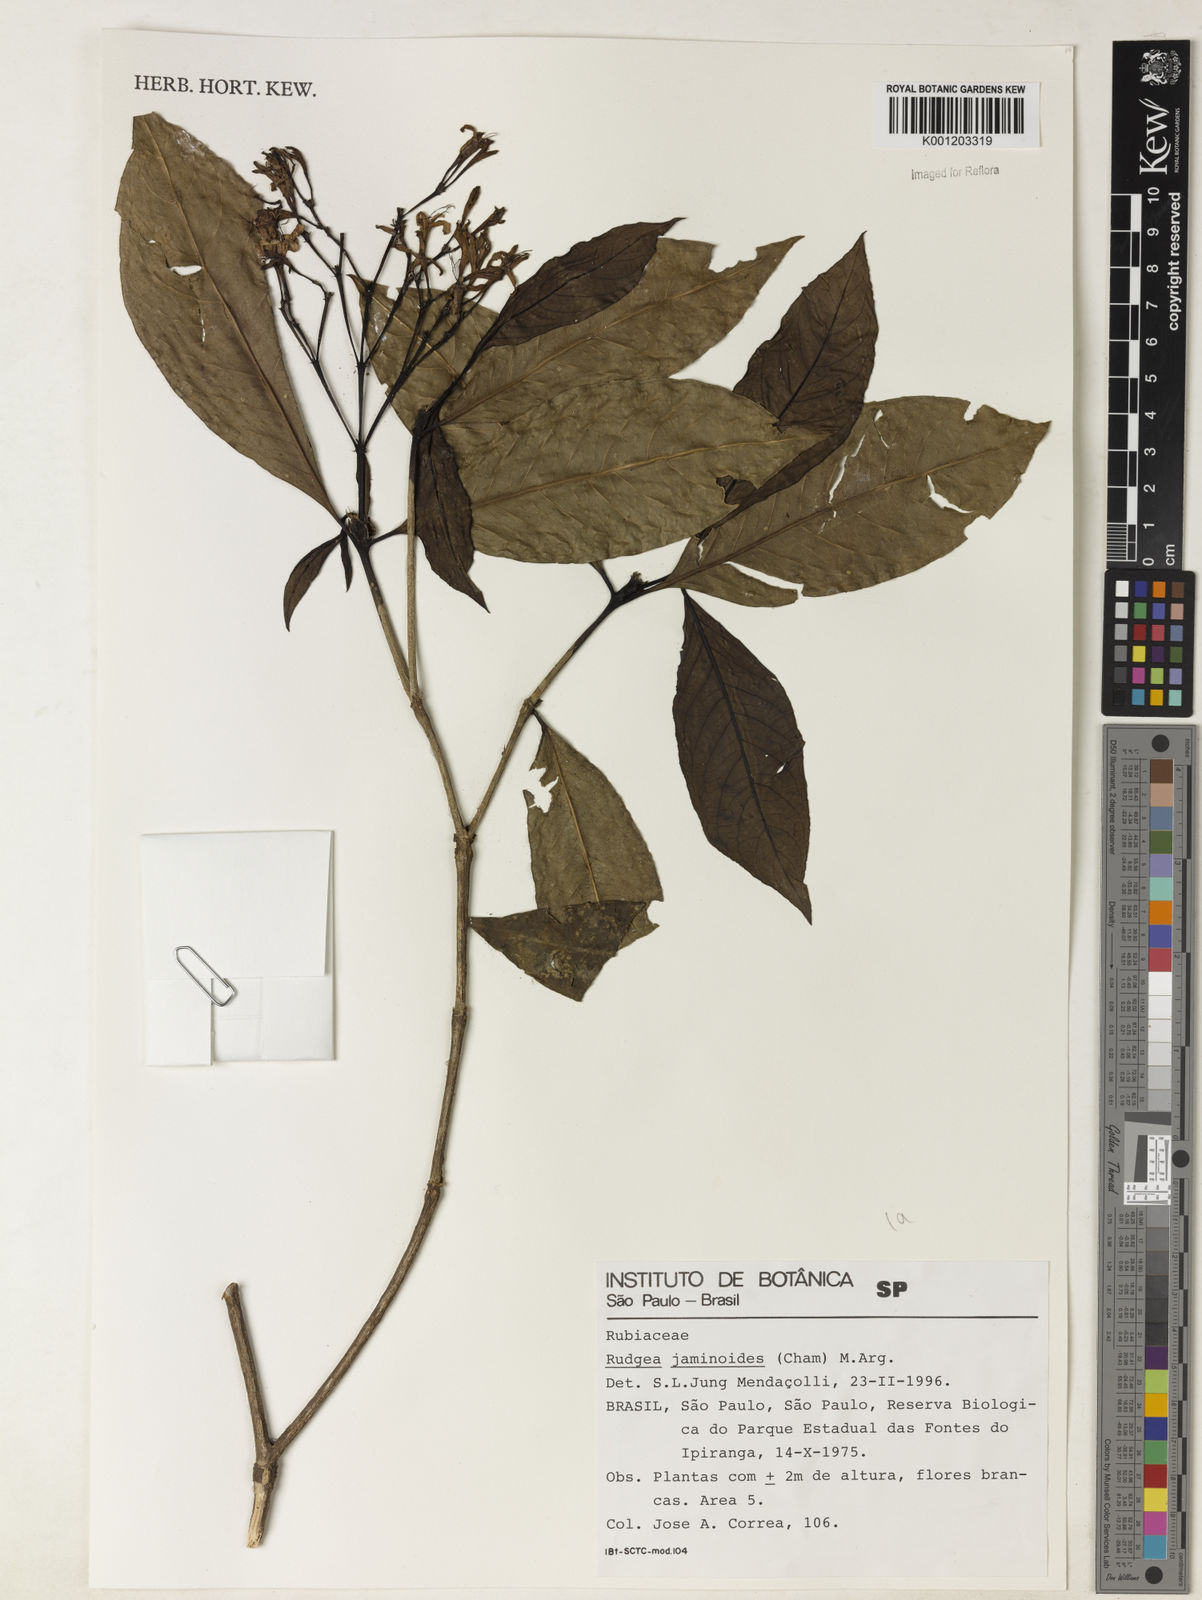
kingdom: Plantae
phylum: Tracheophyta
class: Magnoliopsida
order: Gentianales
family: Rubiaceae
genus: Rudgea
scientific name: Rudgea
